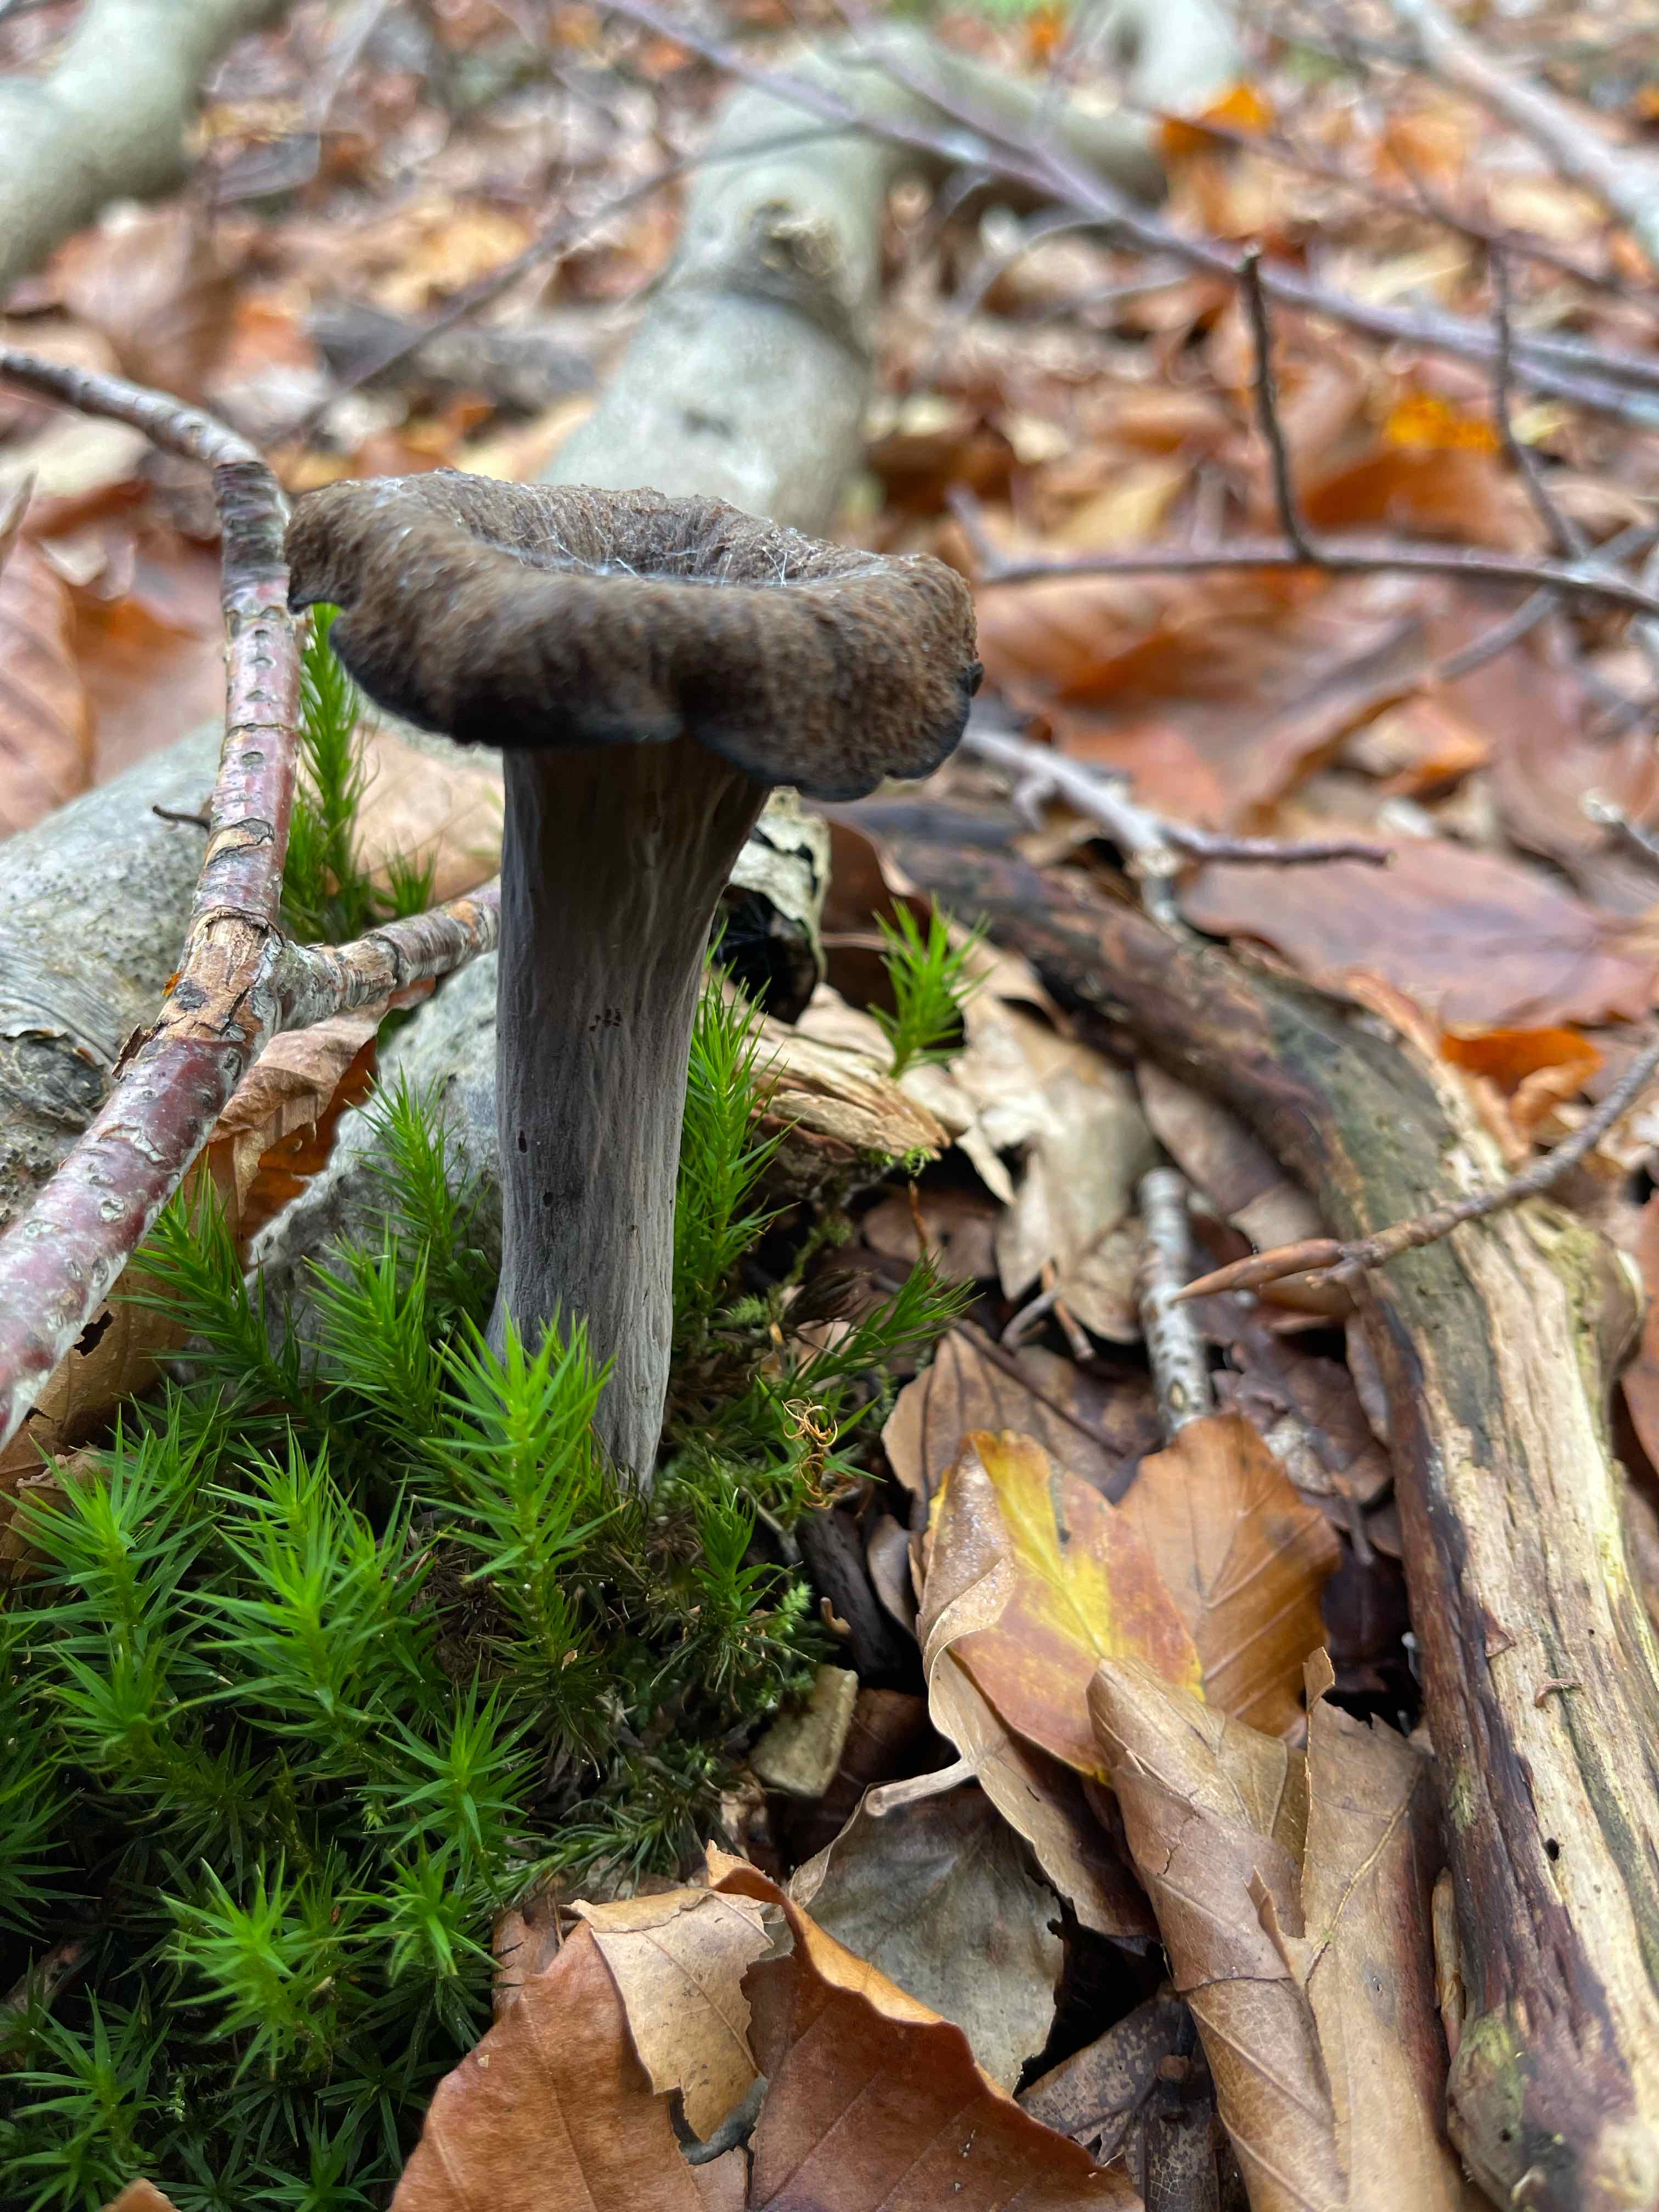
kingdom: Fungi
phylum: Basidiomycota
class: Agaricomycetes
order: Cantharellales
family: Hydnaceae
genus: Craterellus
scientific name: Craterellus cornucopioides
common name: trompetsvamp
